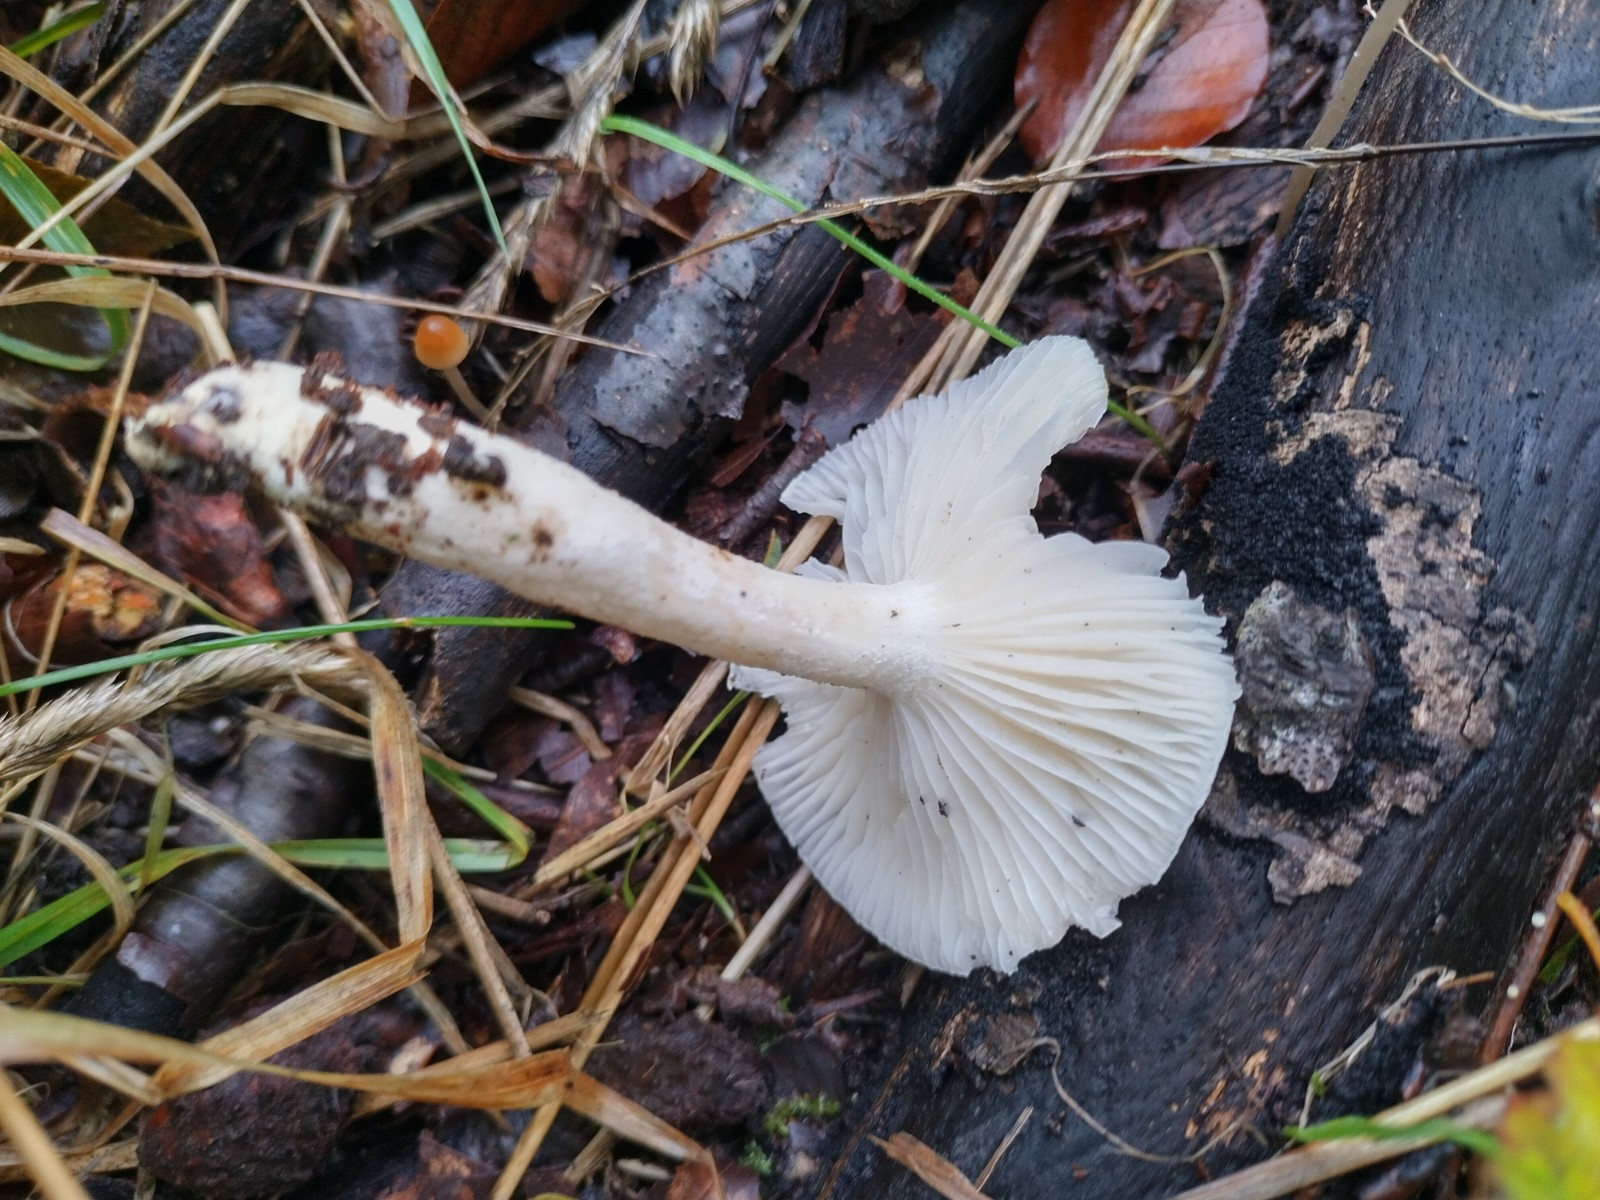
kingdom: Fungi
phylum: Basidiomycota
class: Agaricomycetes
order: Agaricales
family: Hygrophoraceae
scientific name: Hygrophoraceae
